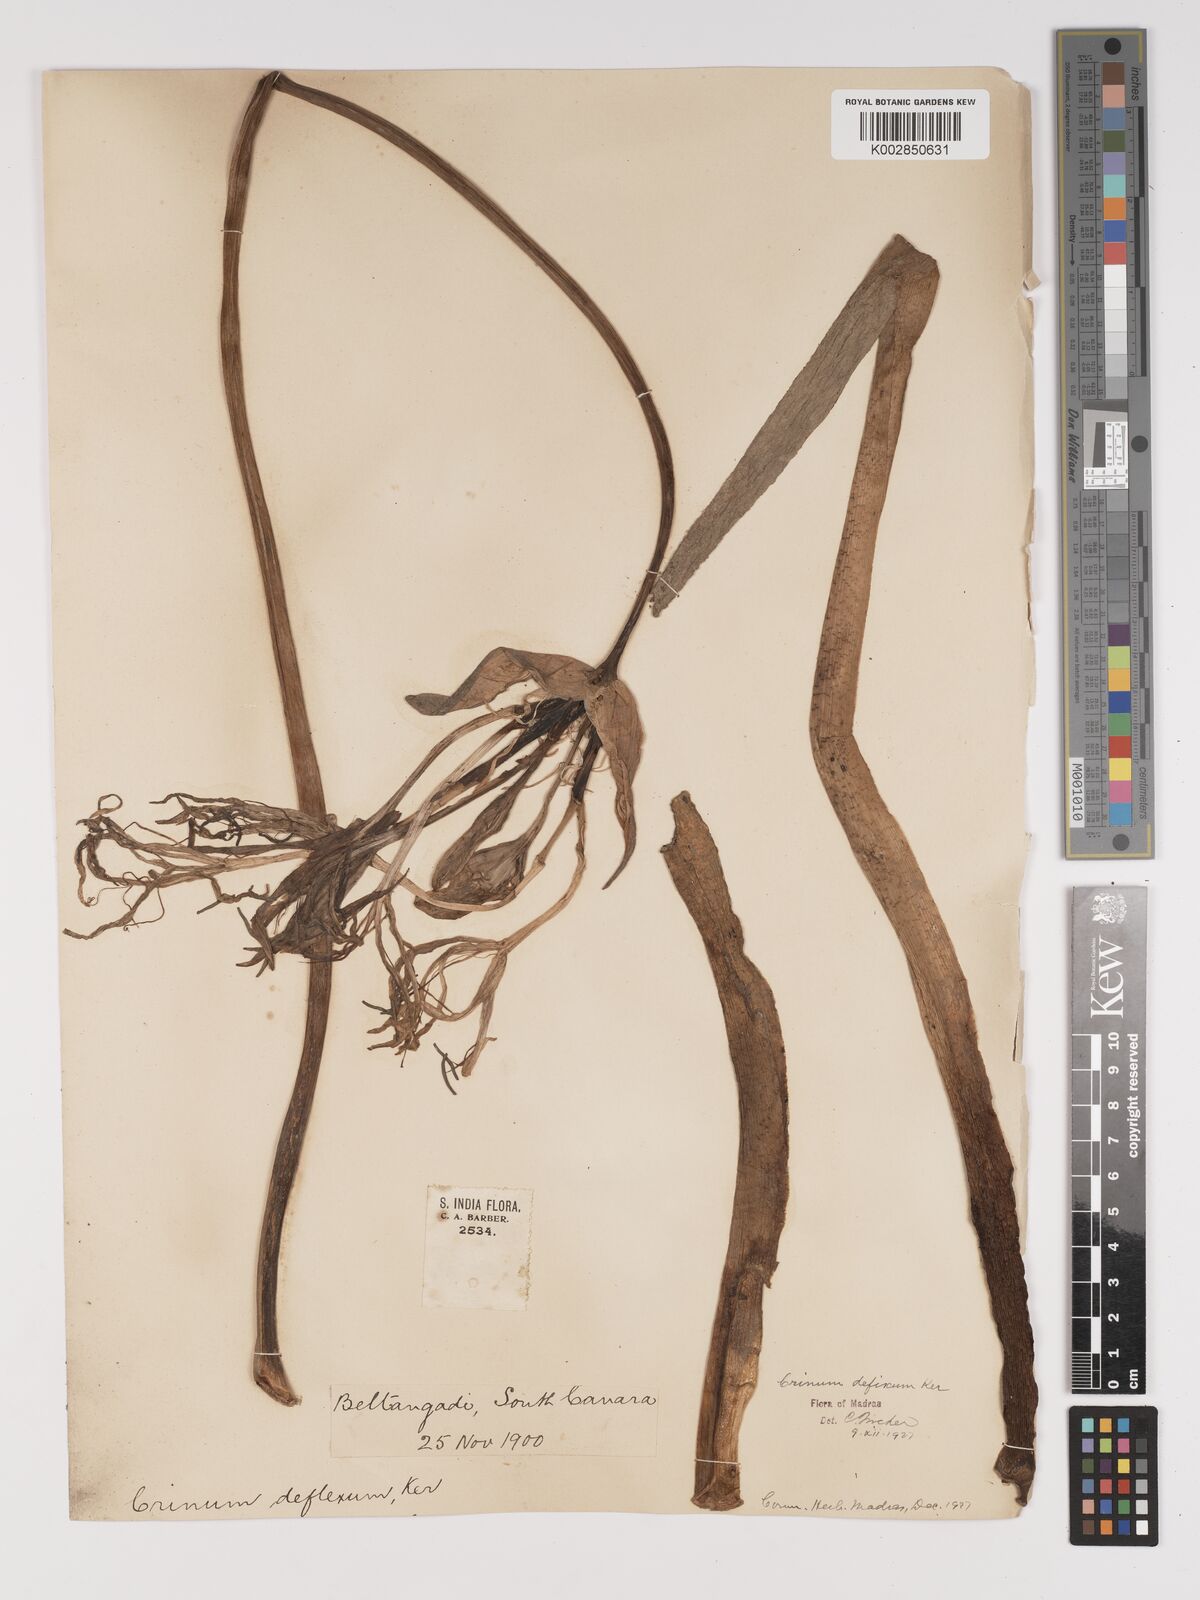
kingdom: Plantae
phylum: Tracheophyta
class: Liliopsida
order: Asparagales
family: Amaryllidaceae
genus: Crinum
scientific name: Crinum defixum
